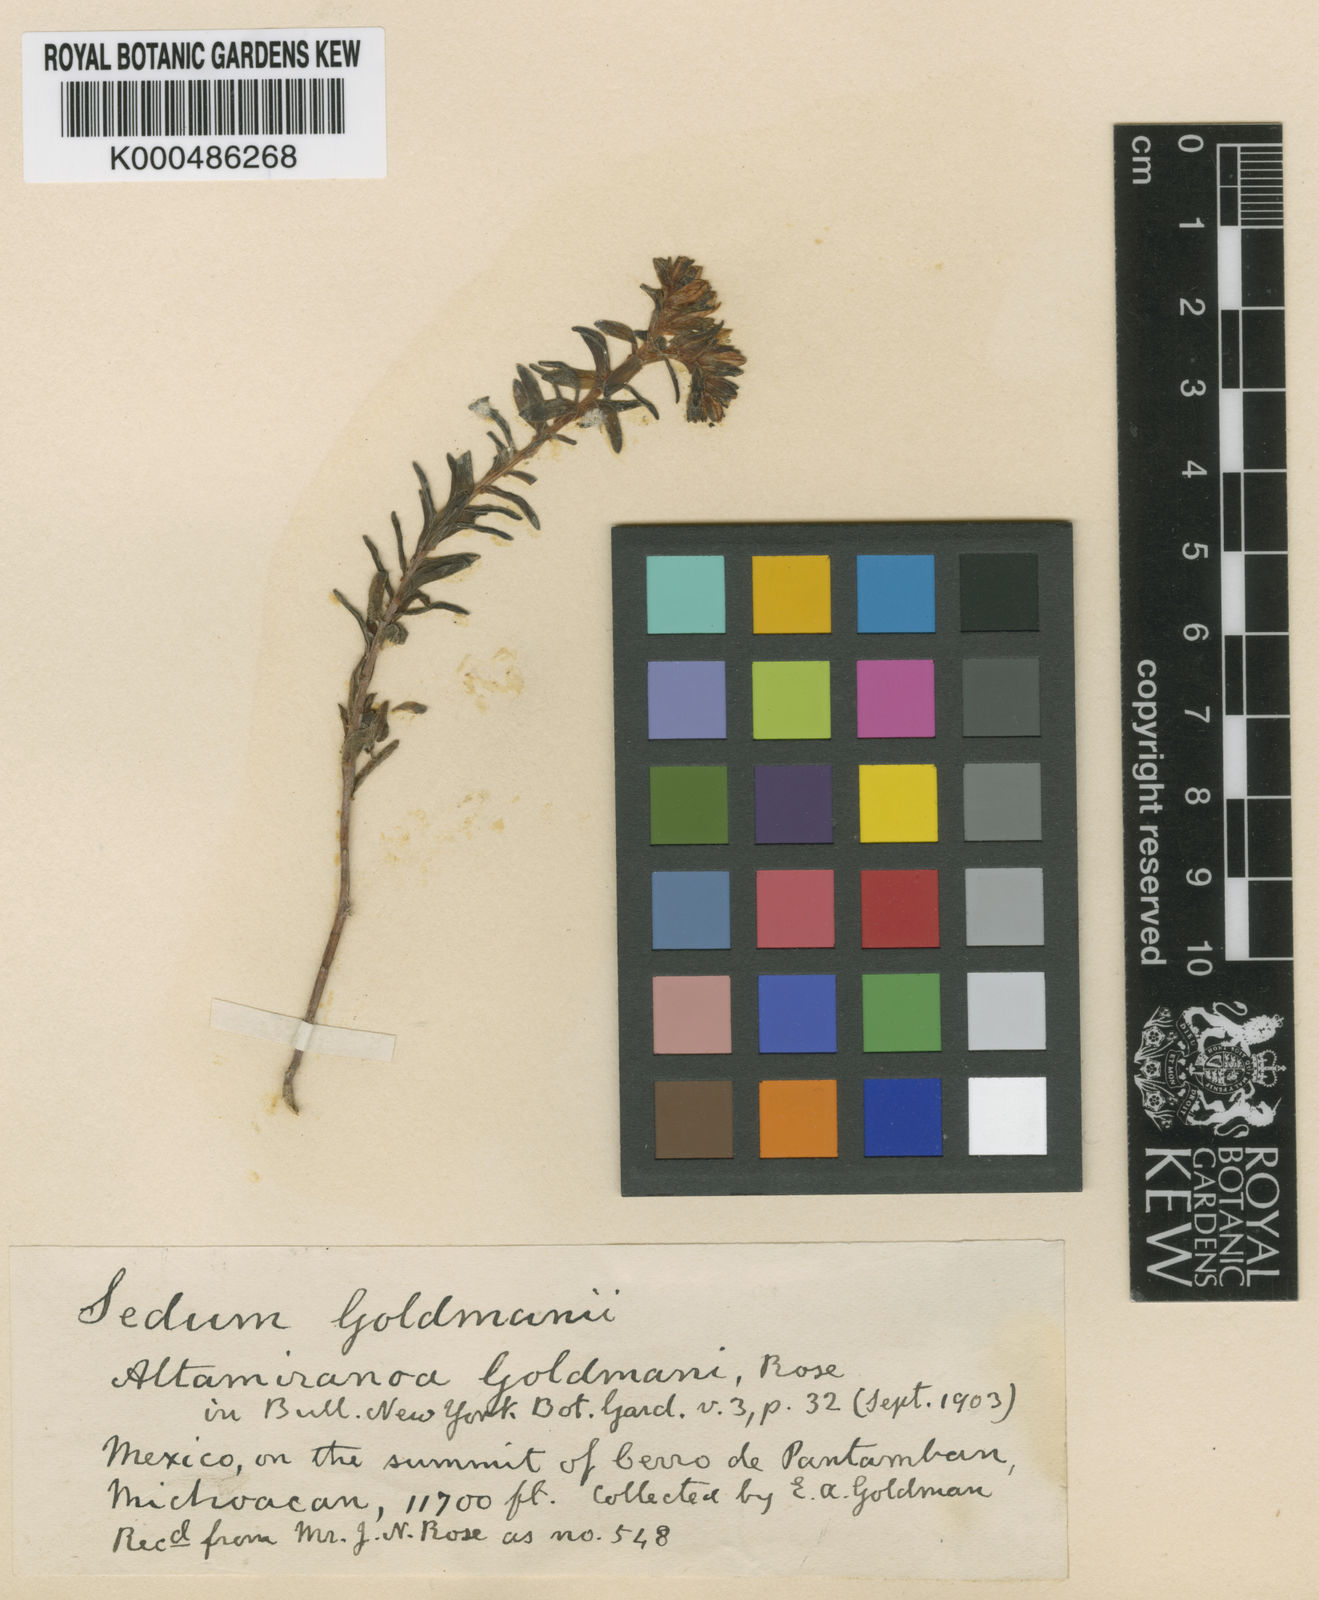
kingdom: Plantae
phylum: Tracheophyta
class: Magnoliopsida
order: Saxifragales
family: Crassulaceae
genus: Sedum
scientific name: Sedum goldmanii
